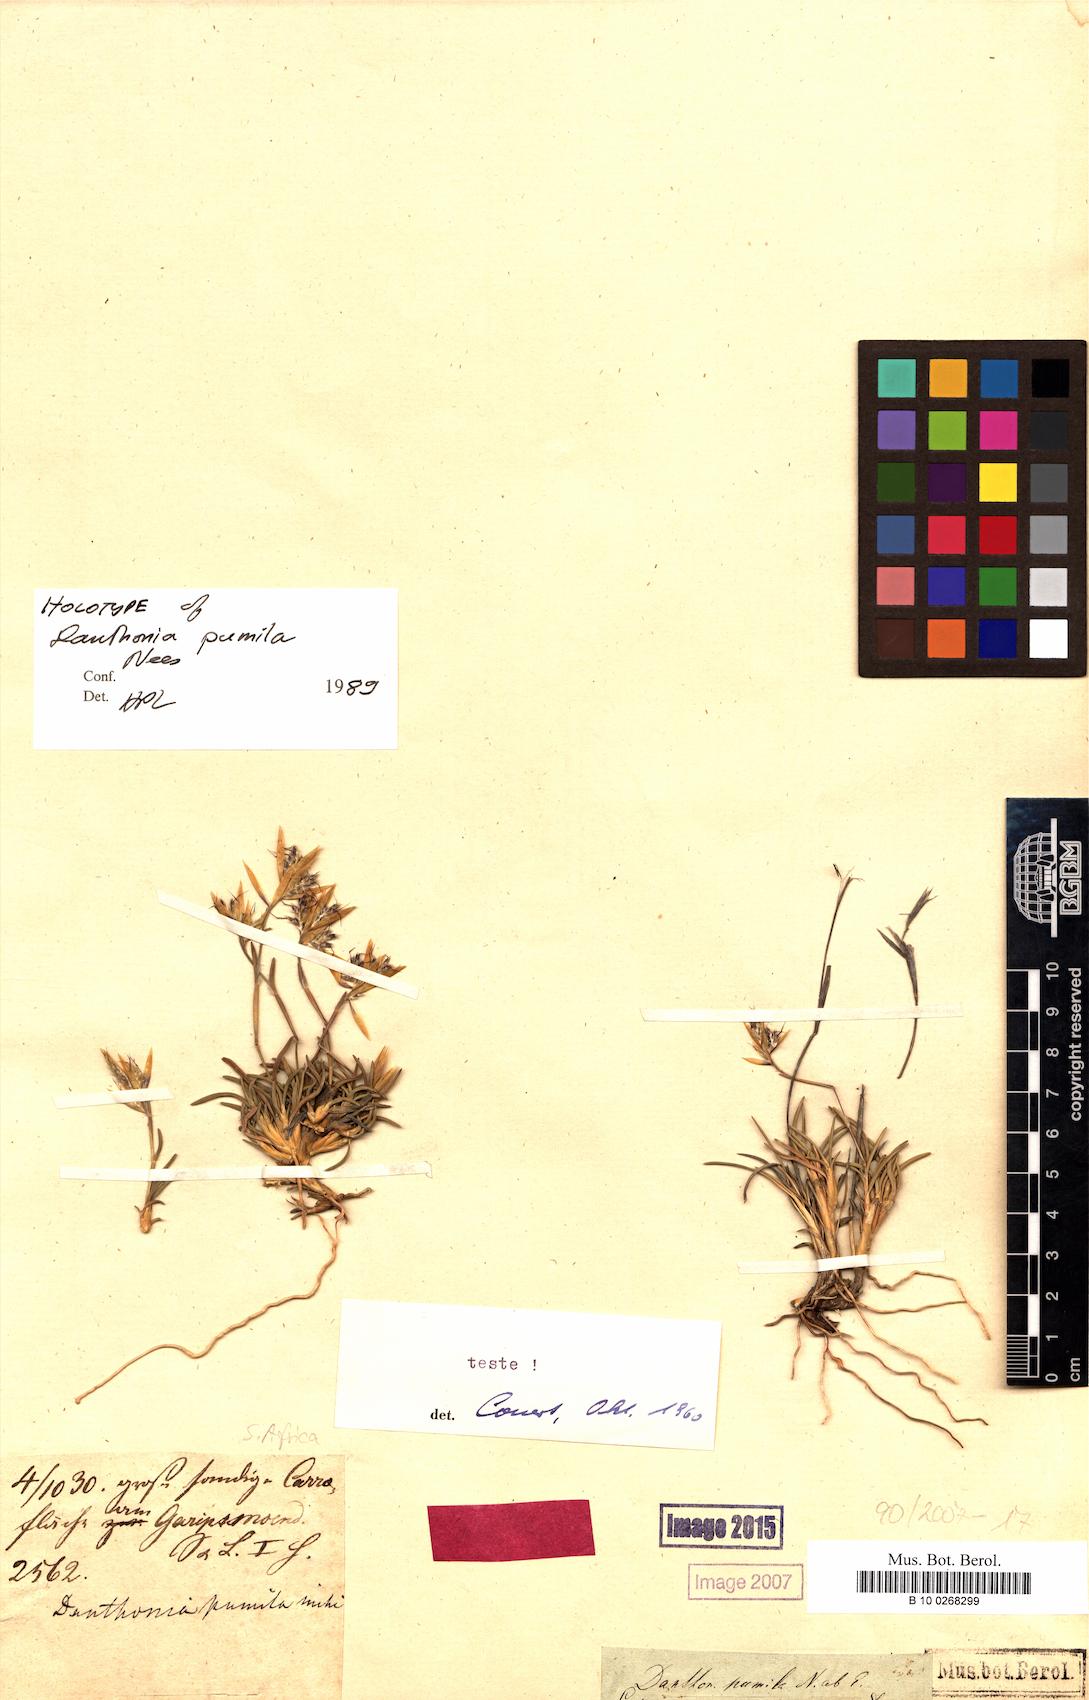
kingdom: Plantae
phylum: Tracheophyta
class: Liliopsida
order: Poales
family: Poaceae
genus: Dregeochloa
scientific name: Dregeochloa pumila
